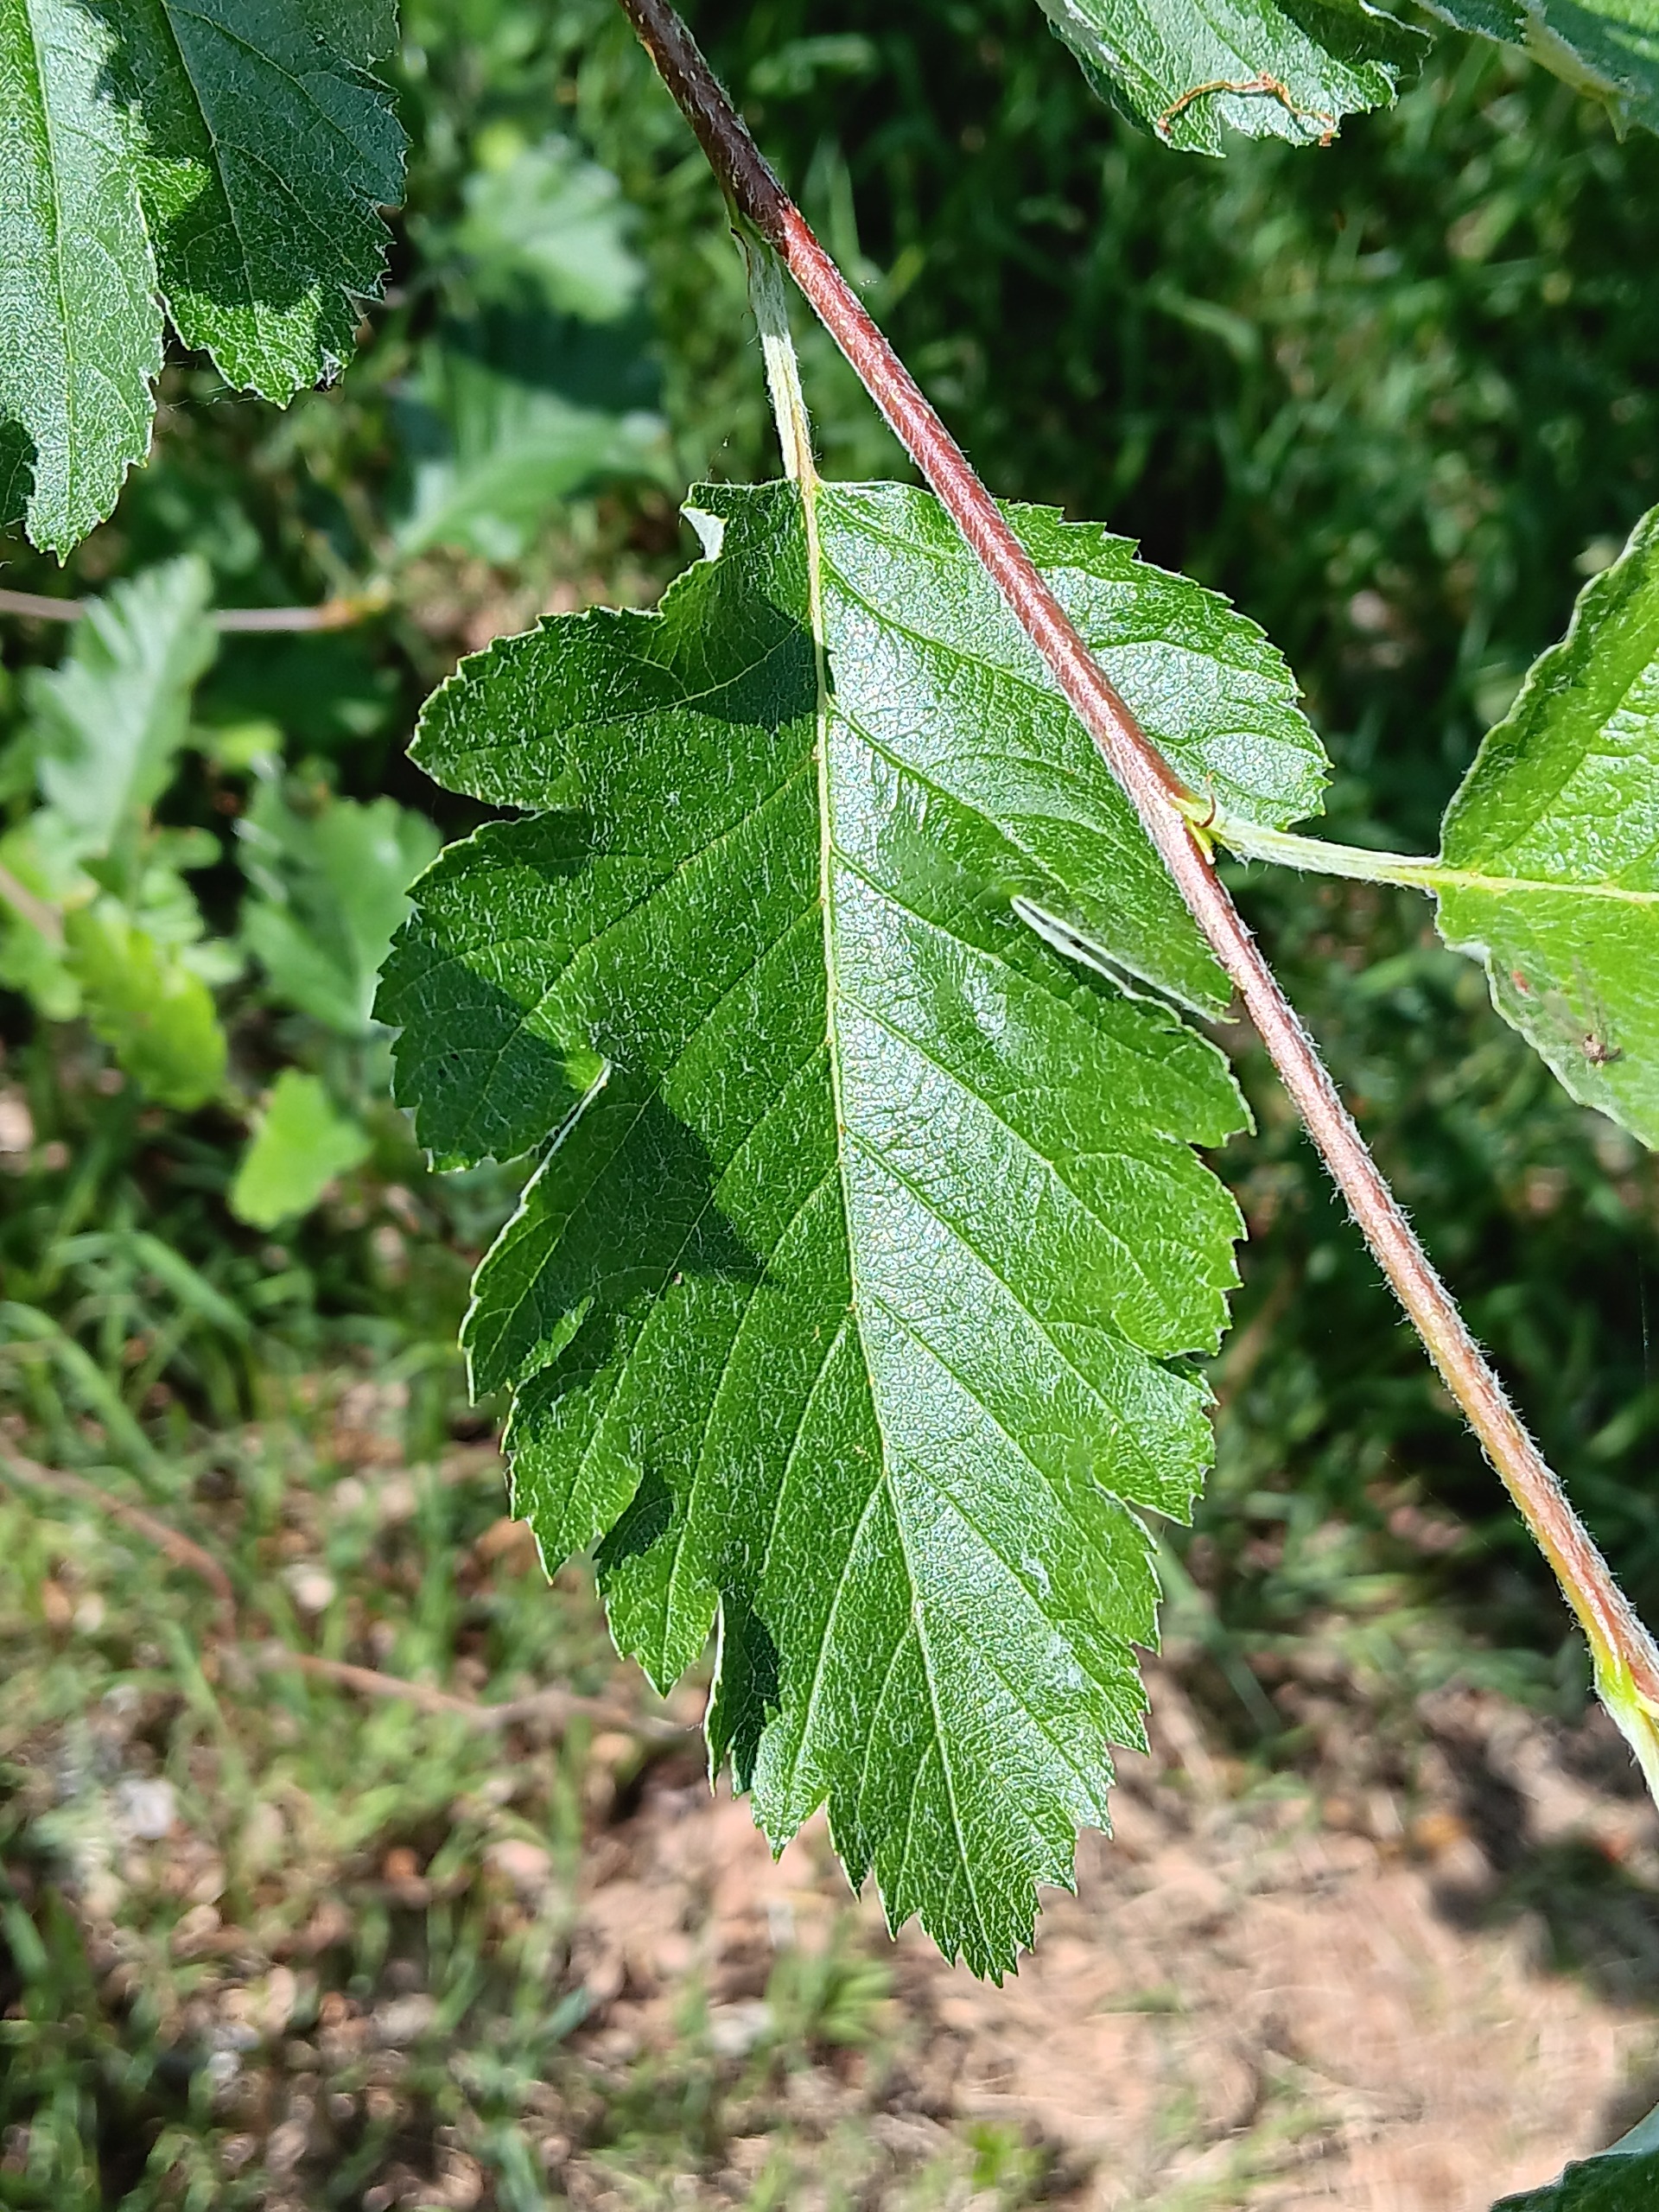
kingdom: Plantae
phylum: Tracheophyta
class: Magnoliopsida
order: Rosales
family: Rosaceae
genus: Scandosorbus
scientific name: Scandosorbus intermedia
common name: Selje-røn
